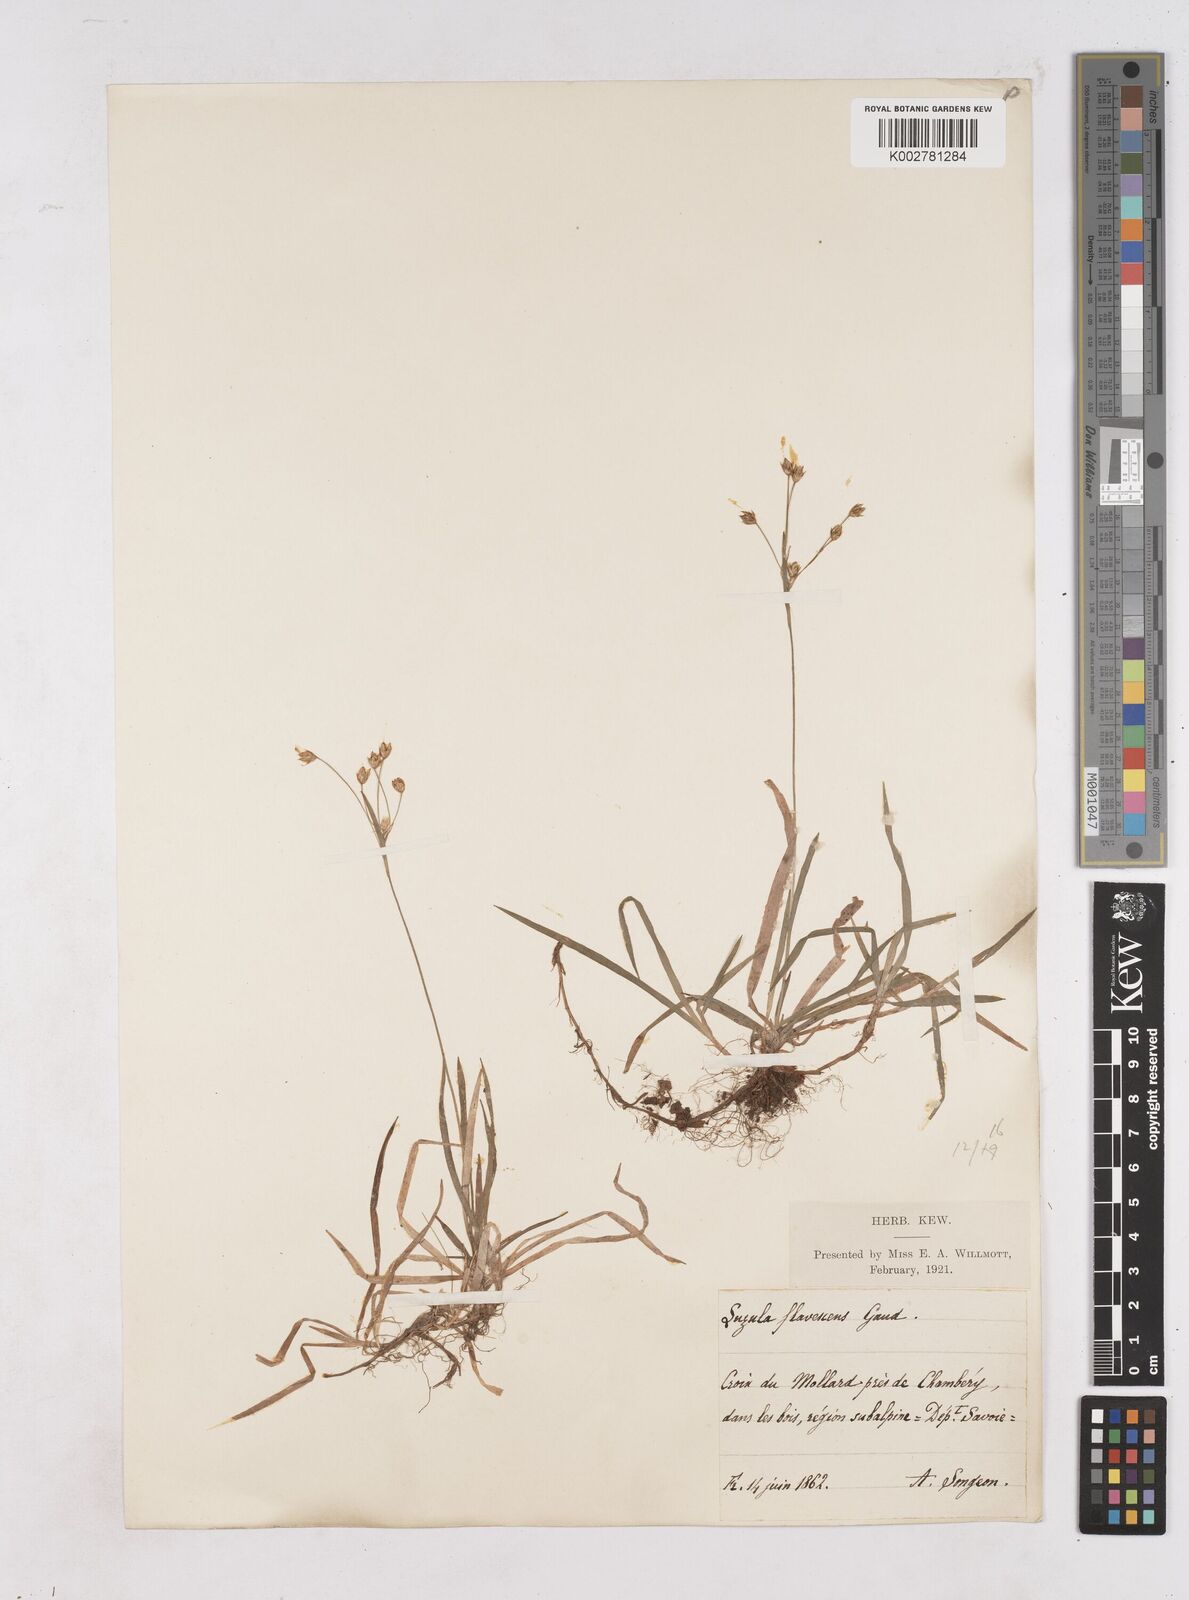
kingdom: Plantae
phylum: Tracheophyta
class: Liliopsida
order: Poales
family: Juncaceae
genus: Luzula
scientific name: Luzula luzulina
